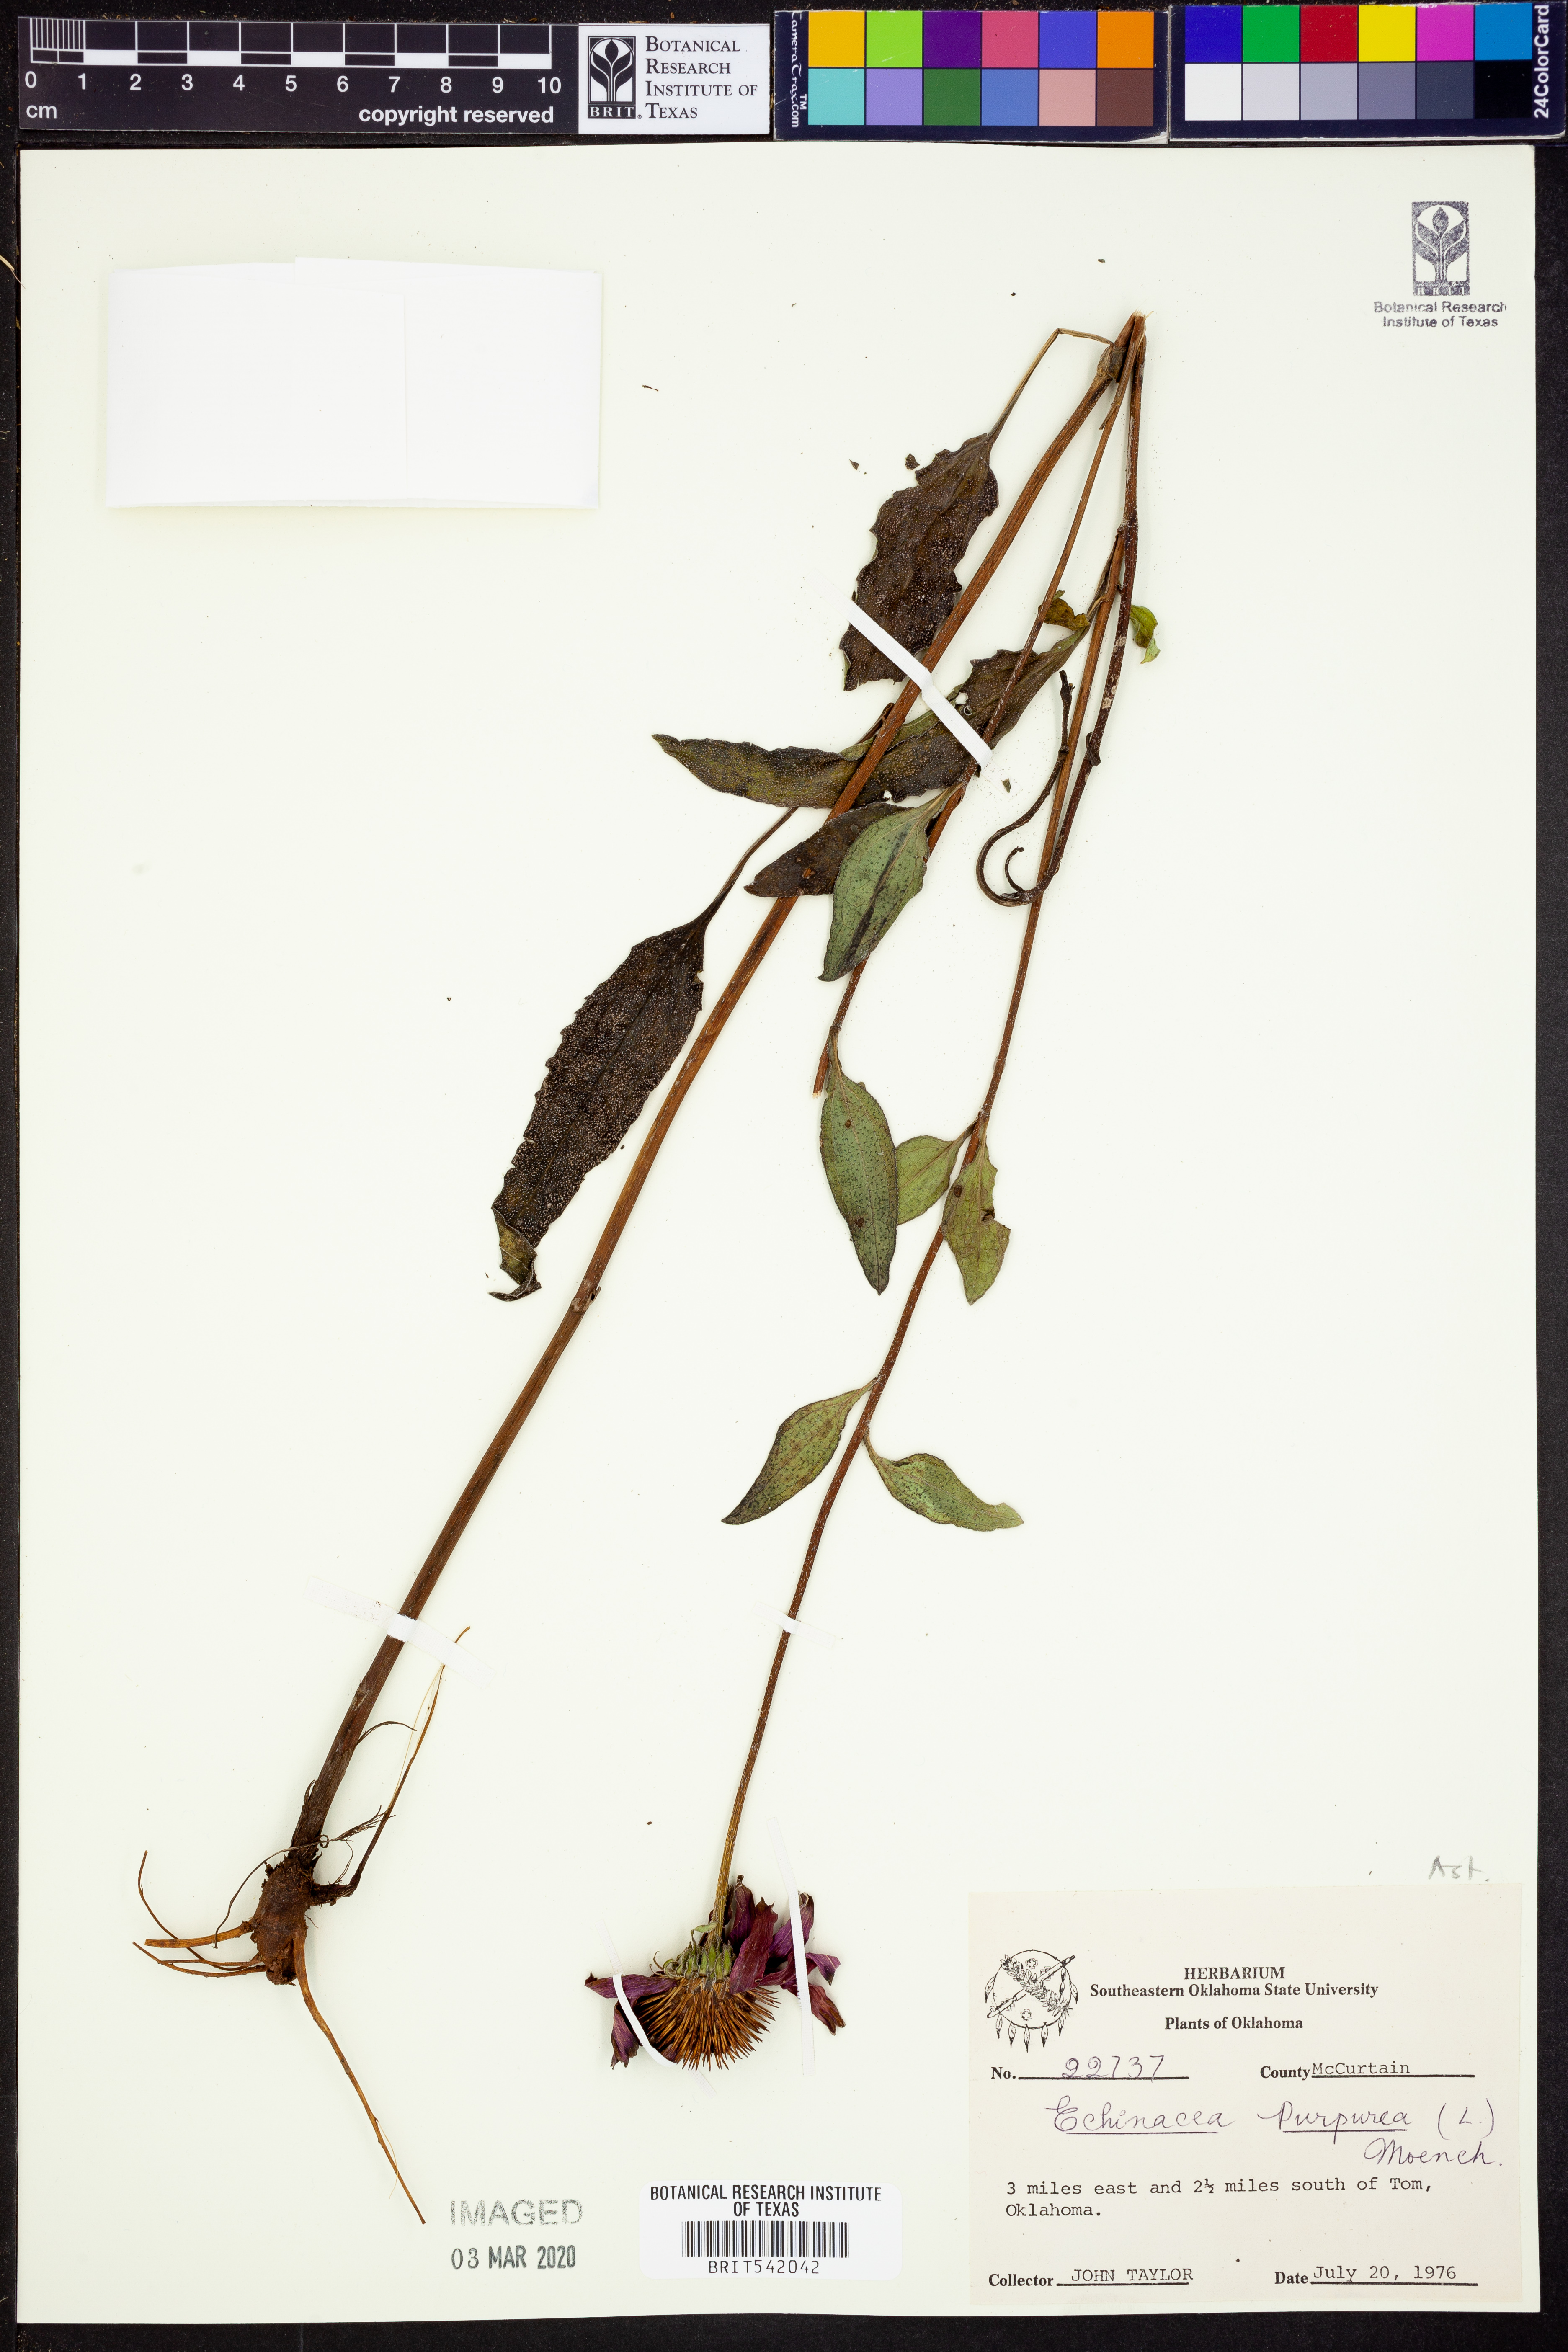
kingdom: Plantae
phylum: Tracheophyta
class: Magnoliopsida
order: Asterales
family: Asteraceae
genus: Echinacea
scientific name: Echinacea purpurea
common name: Broad-leaved purple coneflower
